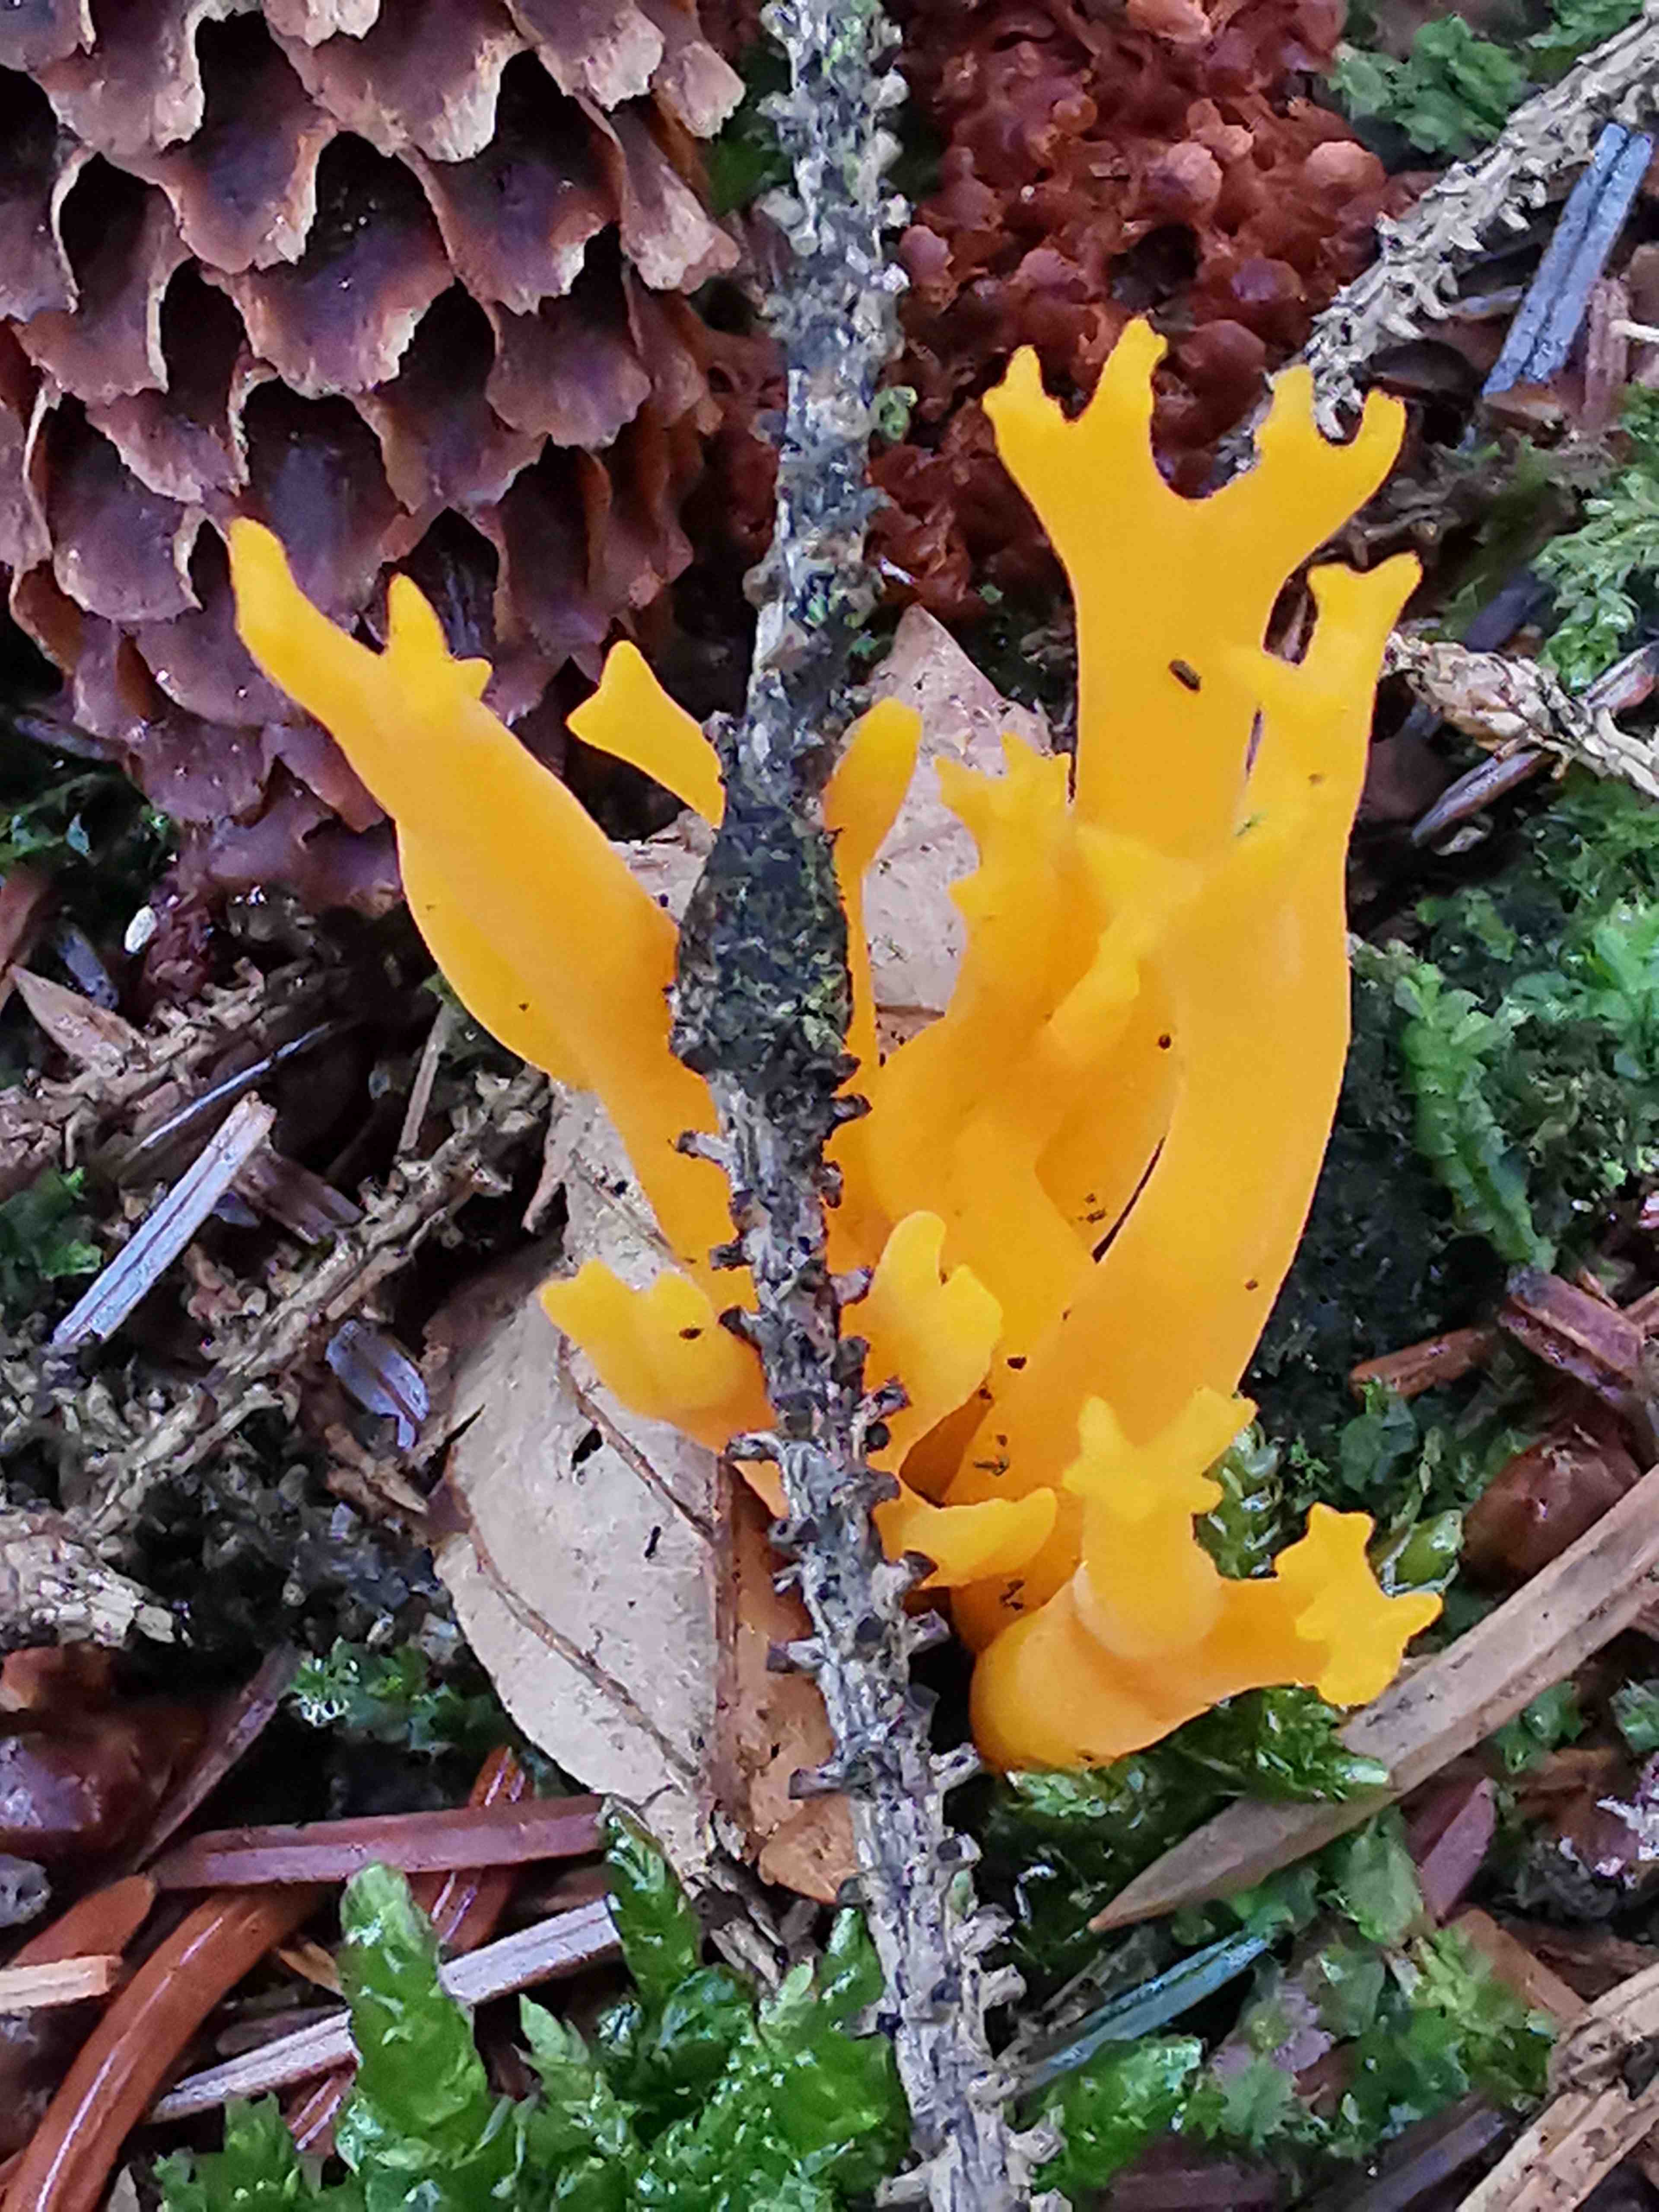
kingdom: Fungi
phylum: Basidiomycota
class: Dacrymycetes
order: Dacrymycetales
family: Dacrymycetaceae
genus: Calocera
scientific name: Calocera viscosa
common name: almindelig guldgaffel
